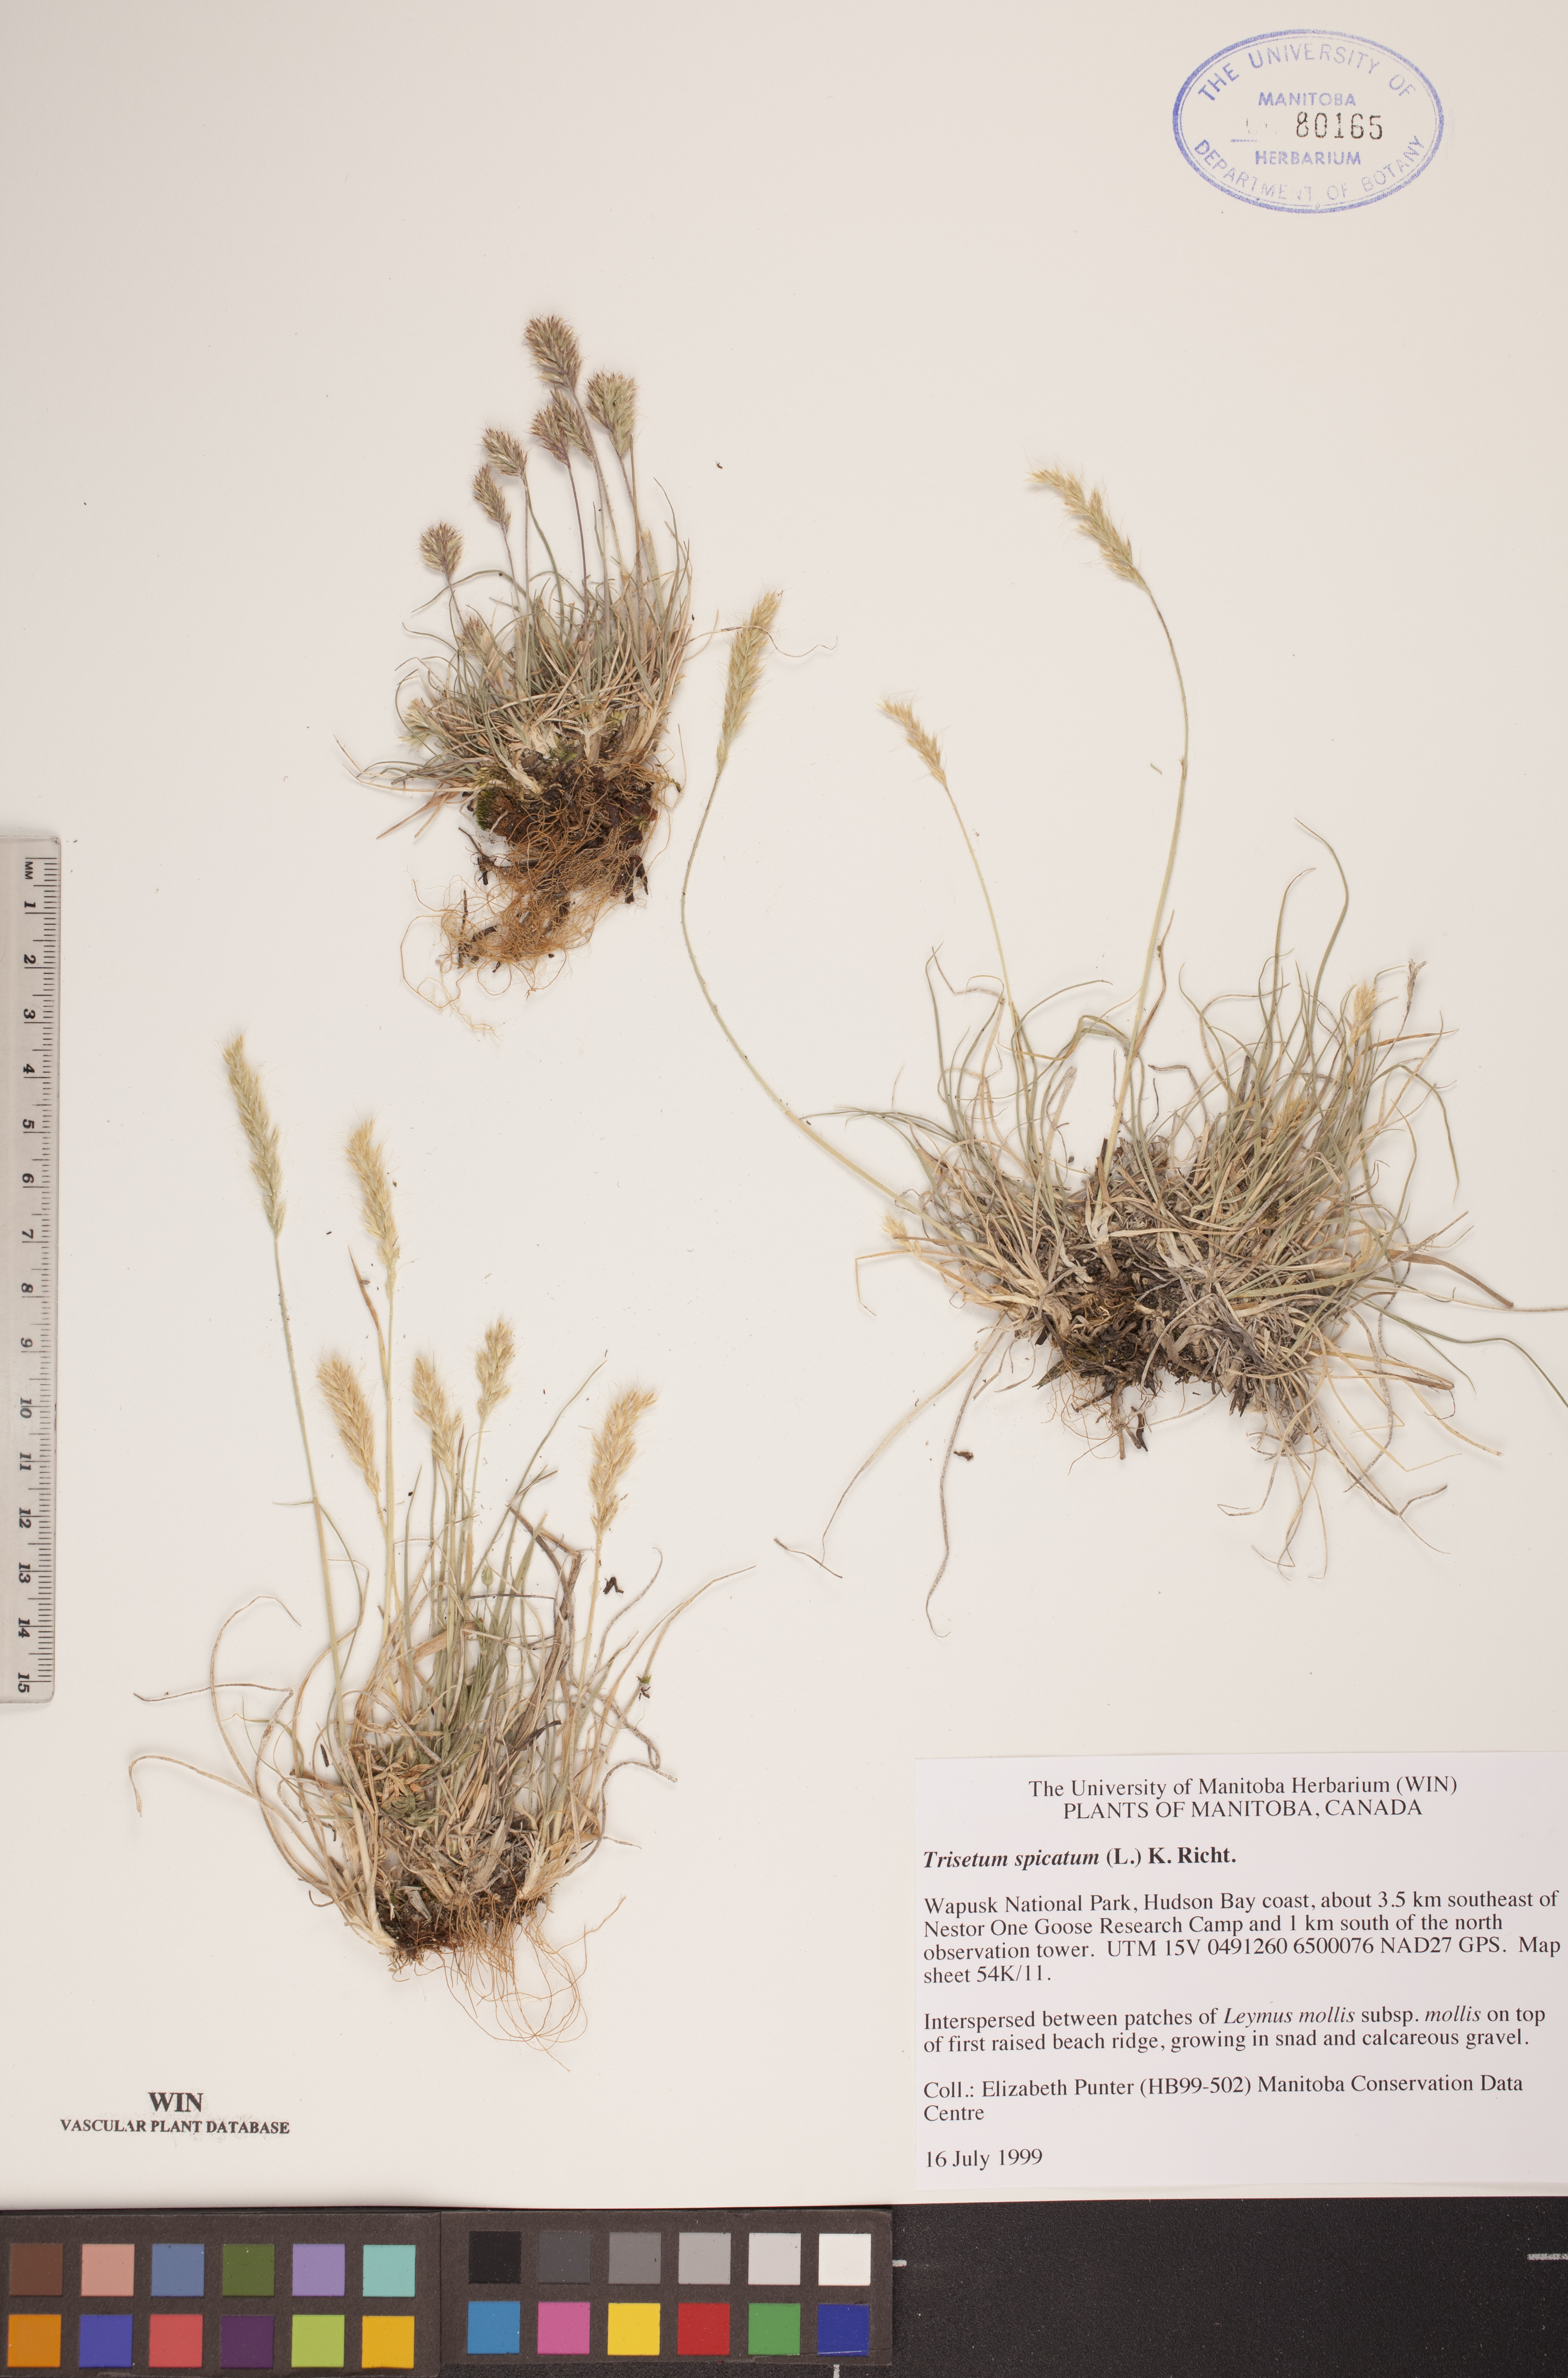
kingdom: Plantae
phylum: Tracheophyta
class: Liliopsida
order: Poales
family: Poaceae
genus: Koeleria
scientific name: Koeleria spicata
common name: Mountain trisetum
